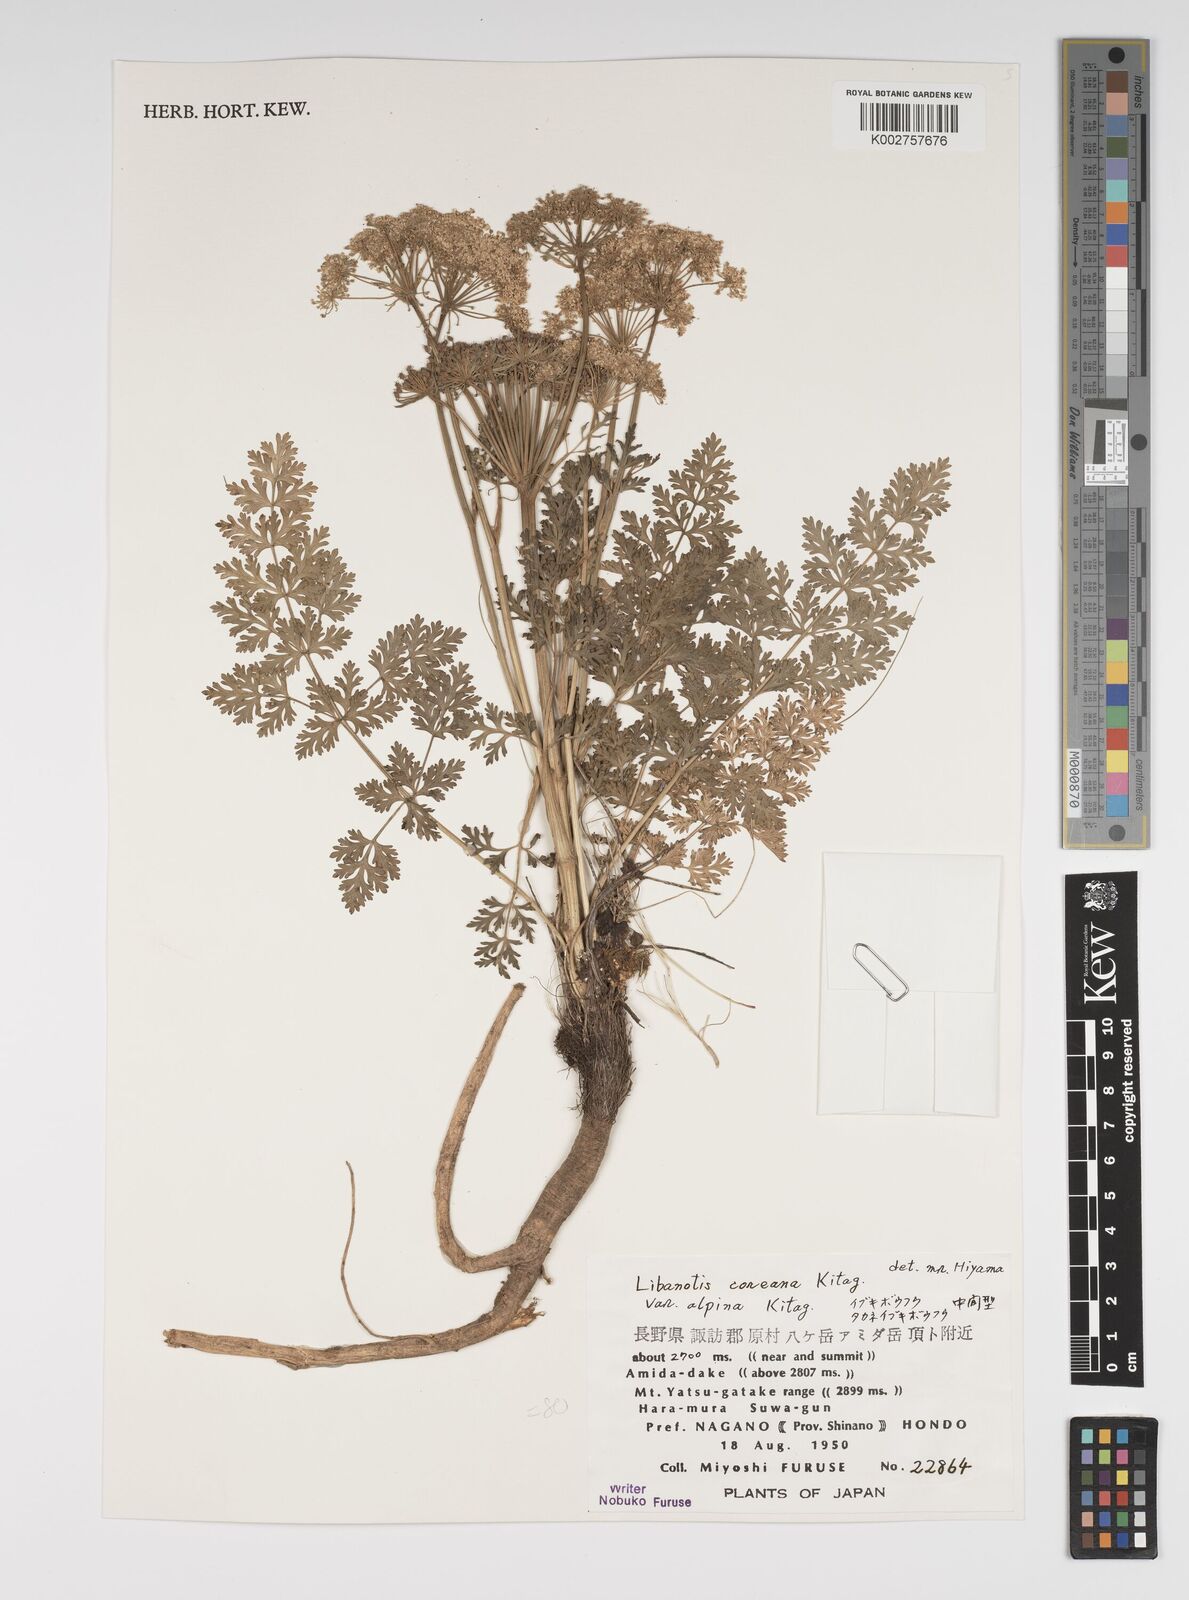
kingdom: Plantae
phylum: Tracheophyta
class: Magnoliopsida
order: Apiales
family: Apiaceae
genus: Seseli
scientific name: Seseli coreanum
